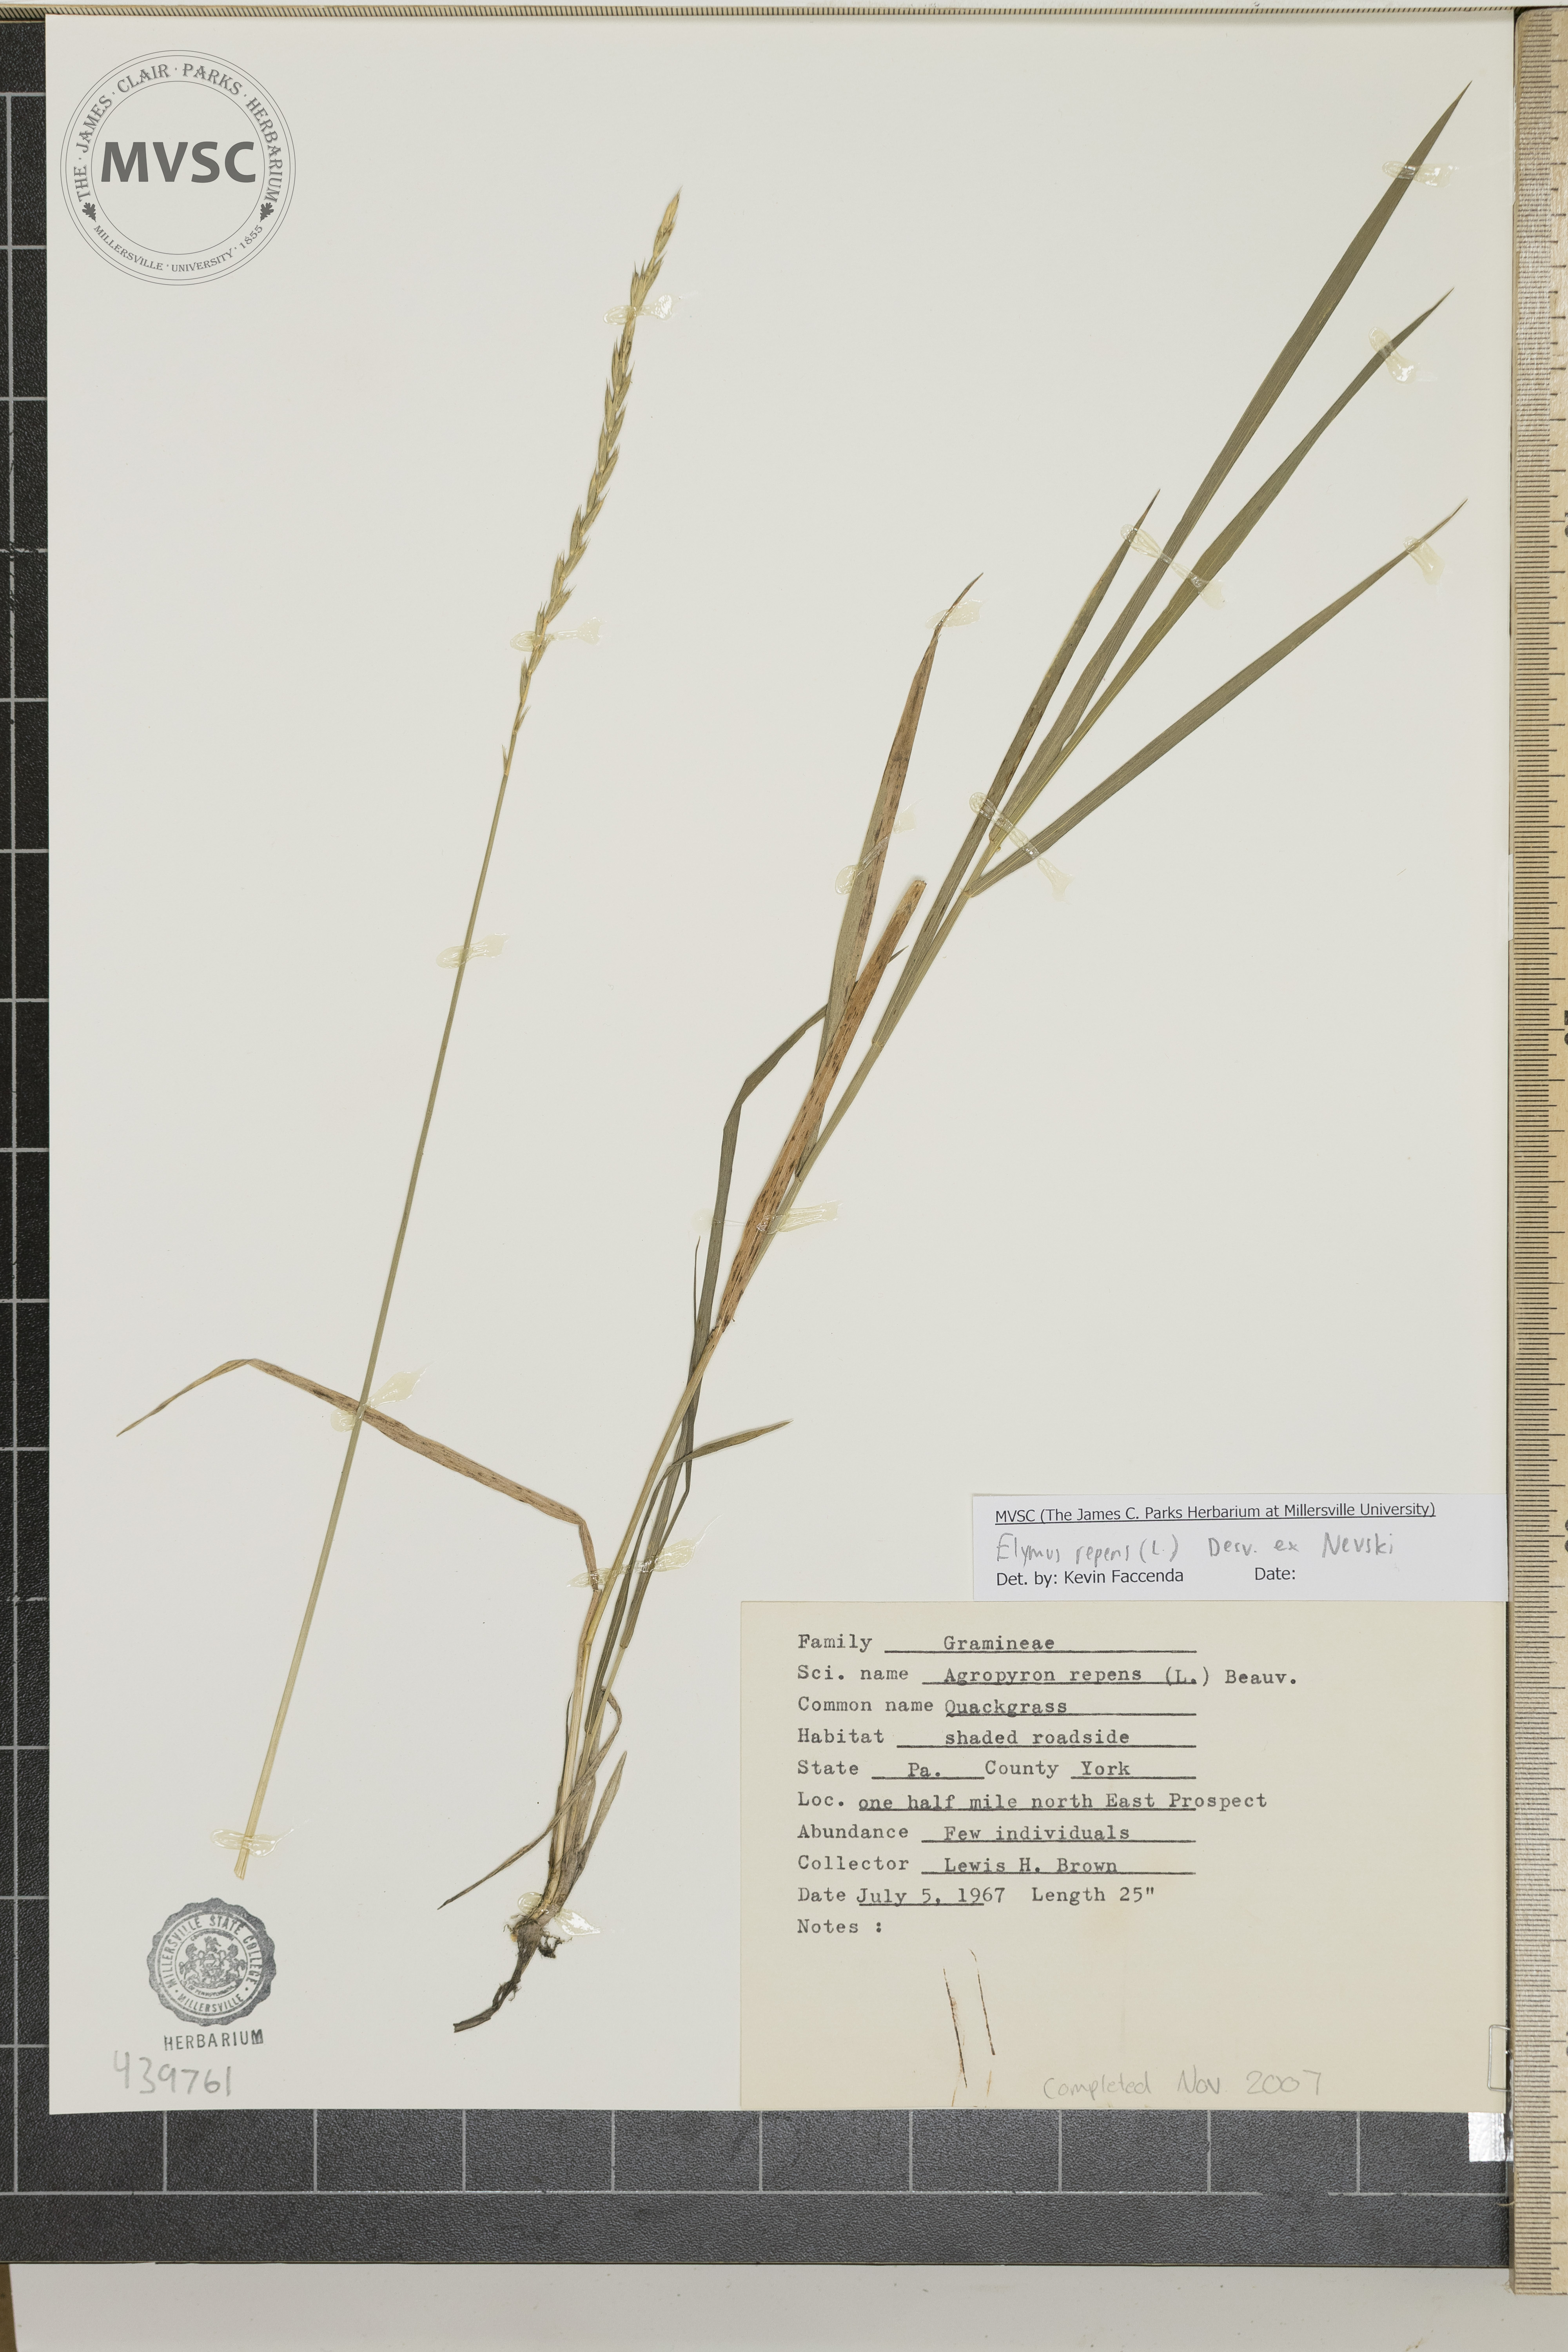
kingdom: Plantae
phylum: Tracheophyta
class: Liliopsida
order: Poales
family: Poaceae
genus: Elymus
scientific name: Elymus repens
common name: Quack grass
